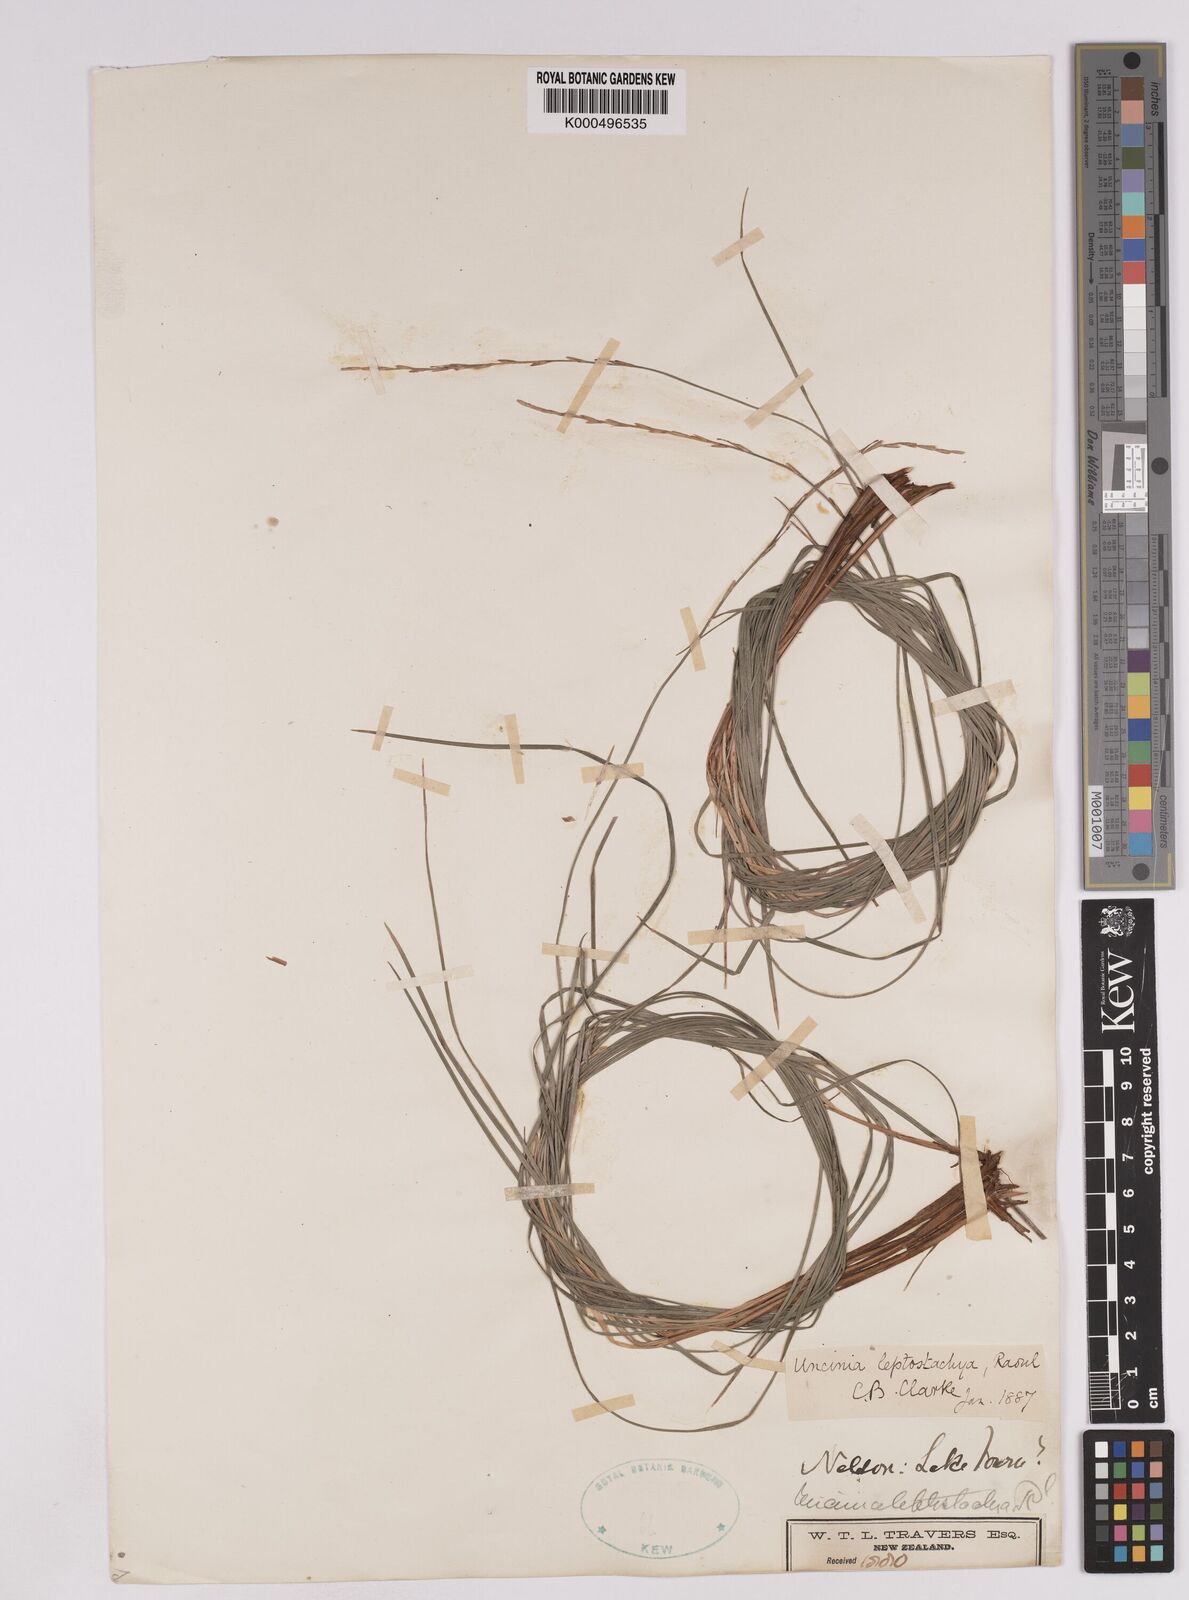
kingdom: Plantae
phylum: Tracheophyta
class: Liliopsida
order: Poales
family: Cyperaceae
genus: Carex
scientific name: Carex phleoides
